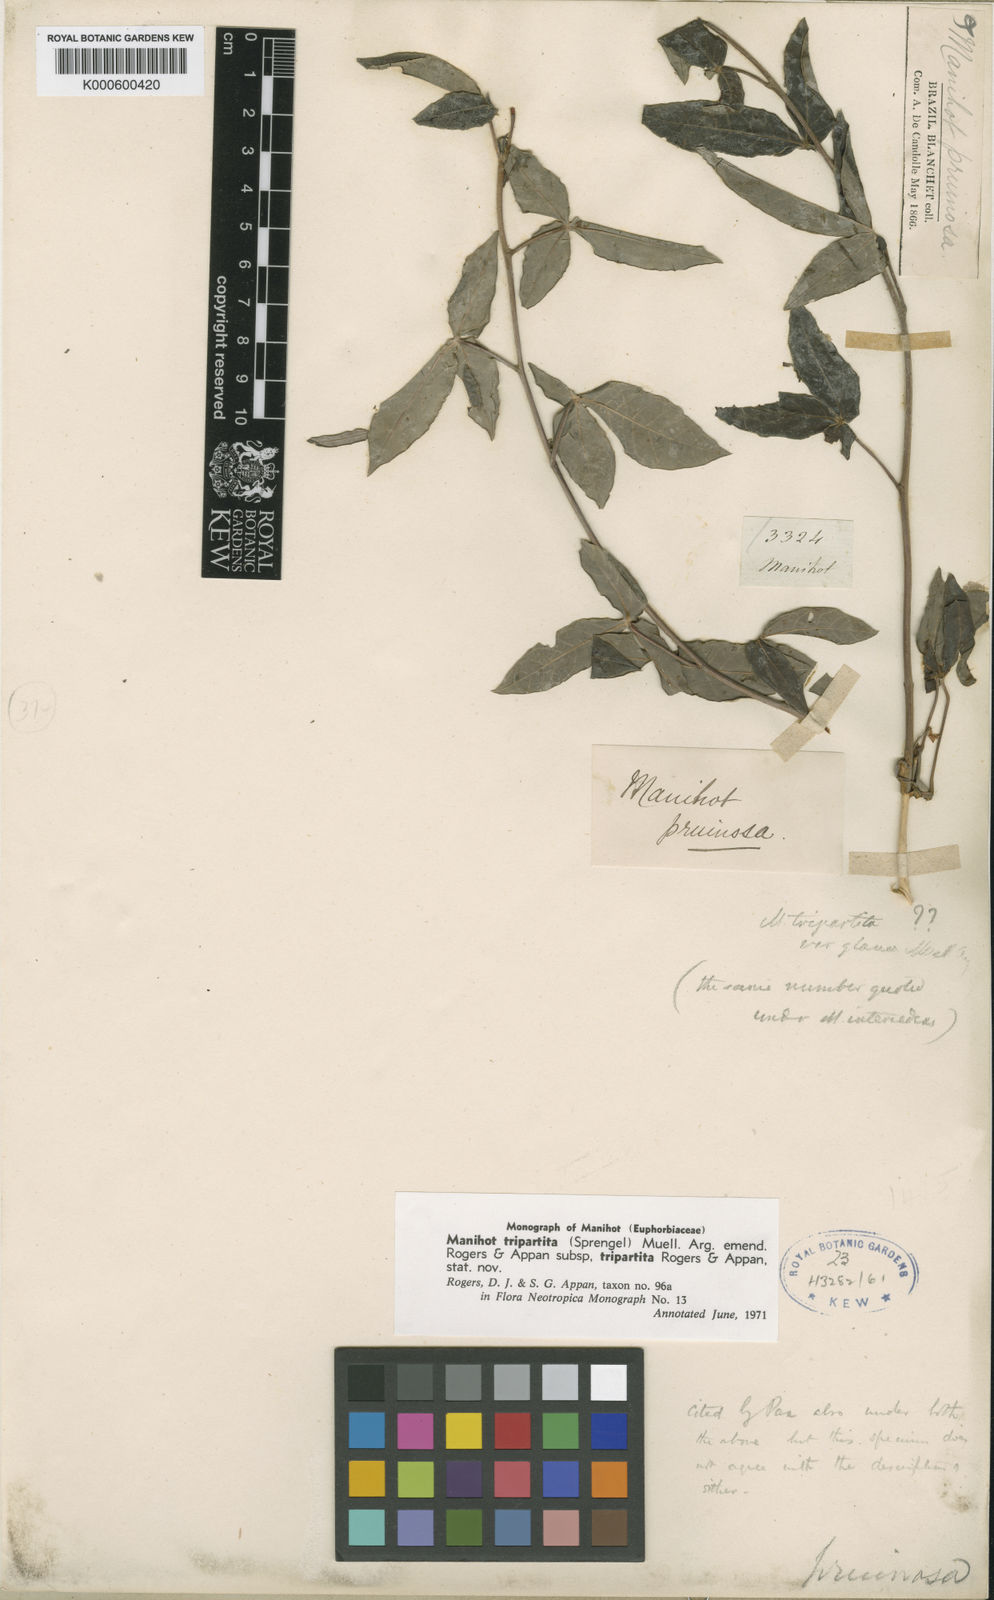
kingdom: Plantae
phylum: Tracheophyta
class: Magnoliopsida
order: Malpighiales
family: Euphorbiaceae
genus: Manihot
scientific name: Manihot tripartita
